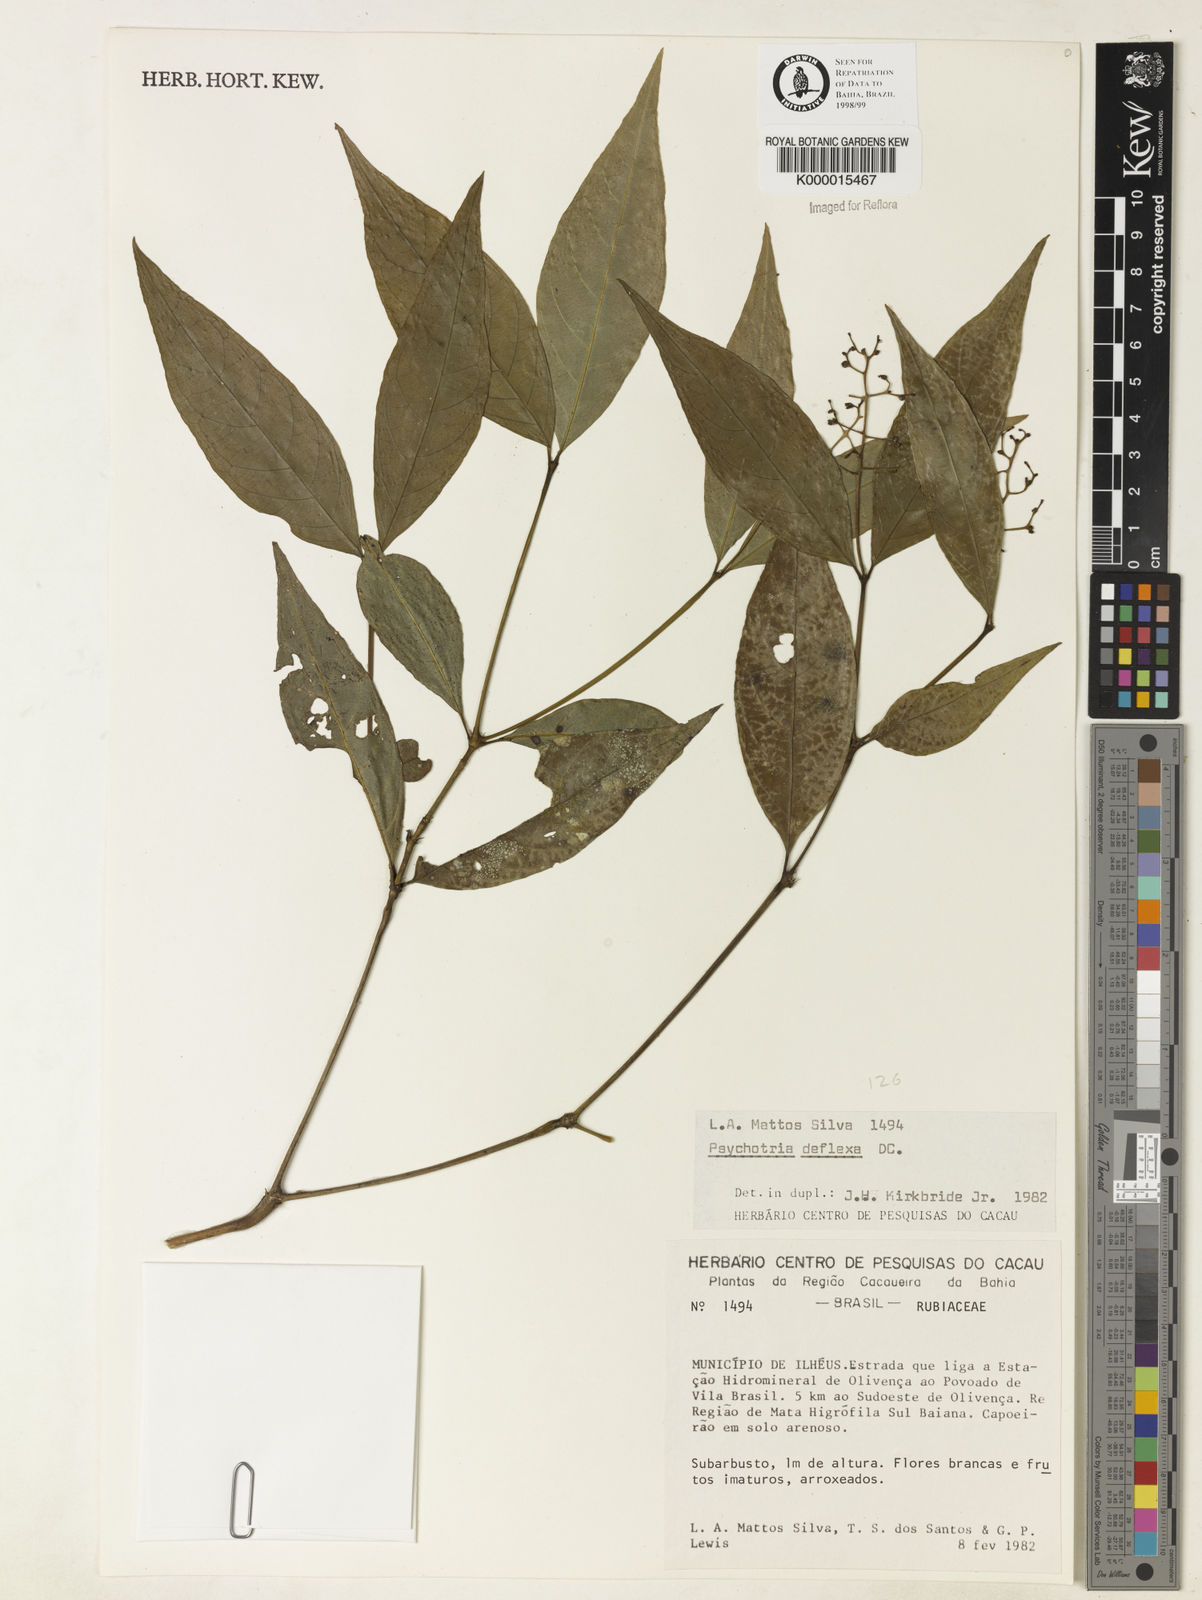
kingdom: Plantae
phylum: Tracheophyta
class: Magnoliopsida
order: Gentianales
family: Rubiaceae
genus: Palicourea
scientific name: Palicourea deflexa
